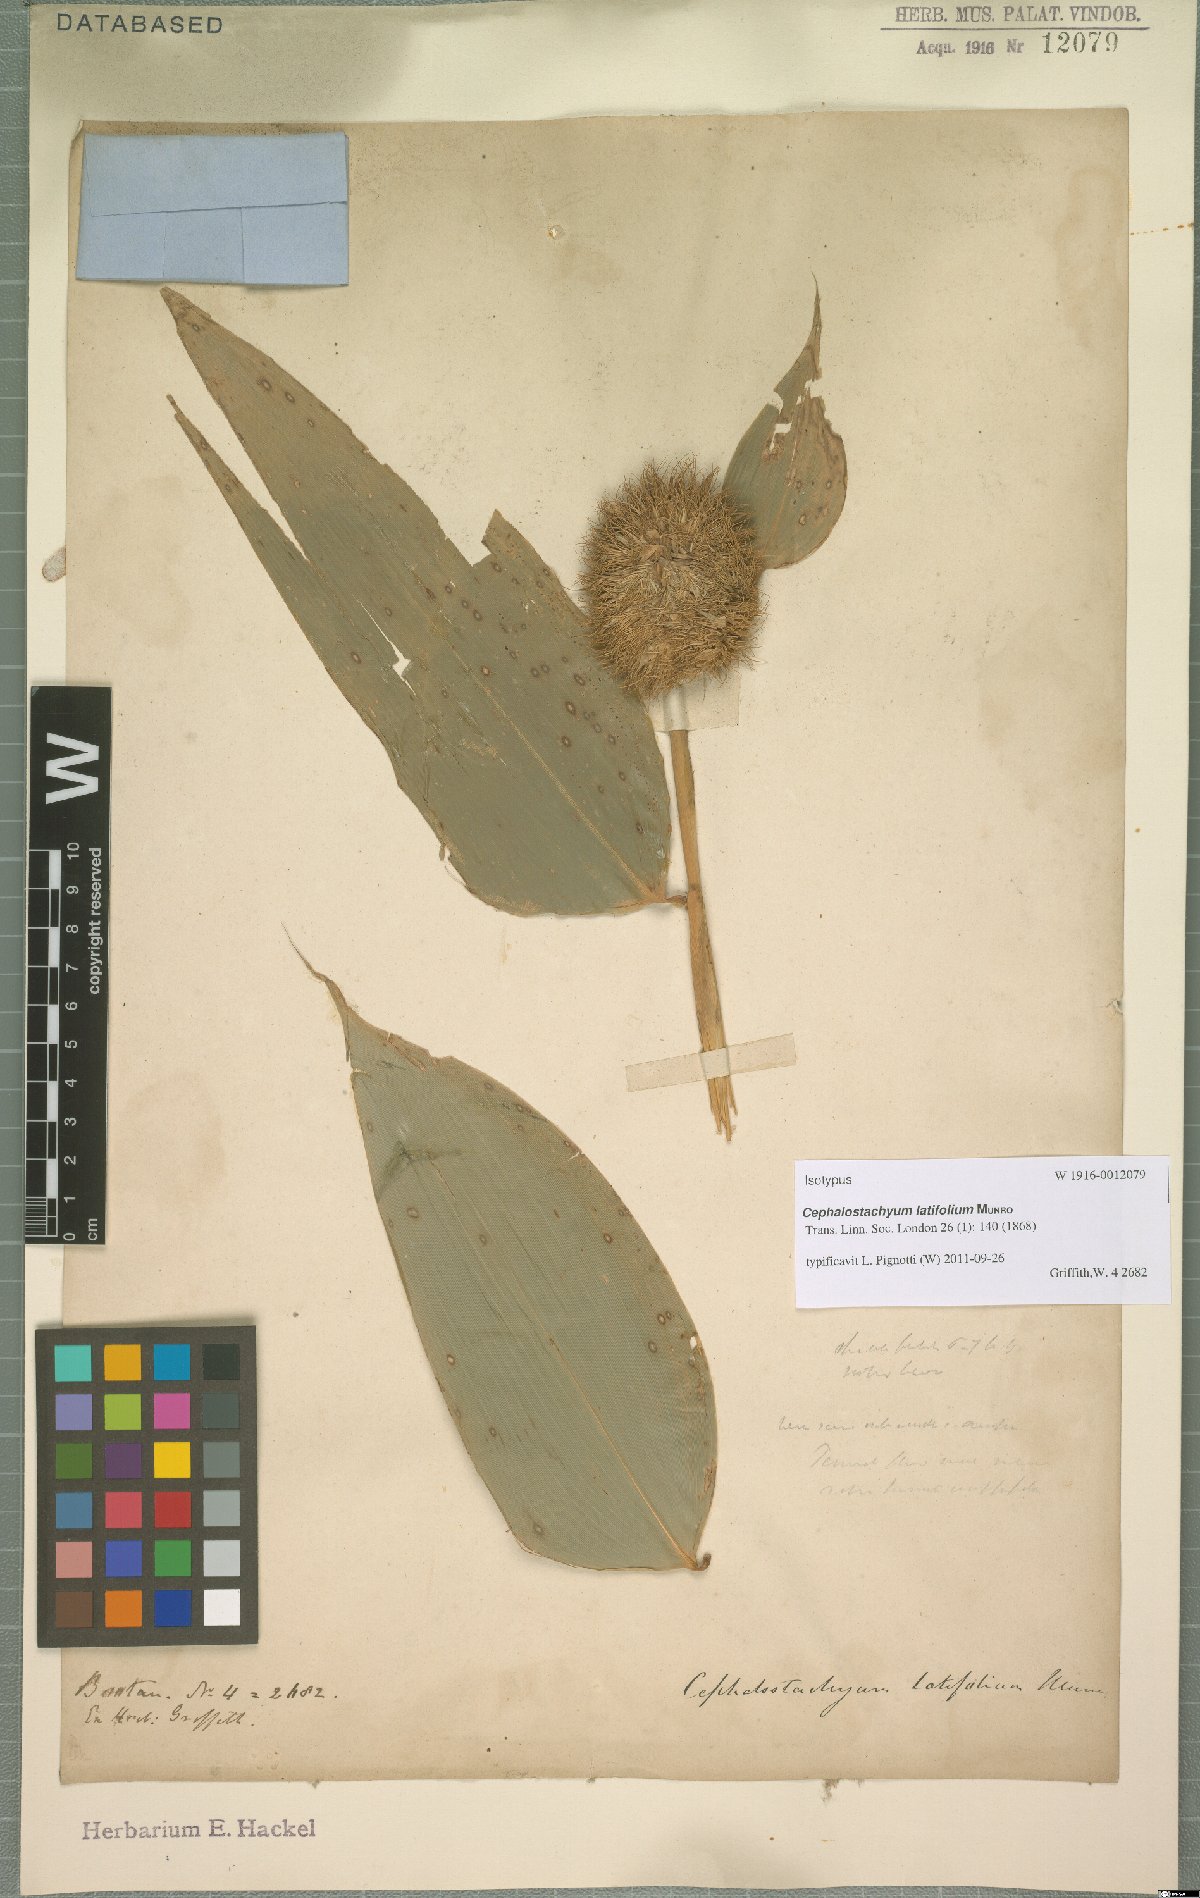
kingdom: Plantae
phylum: Tracheophyta
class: Liliopsida
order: Poales
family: Poaceae
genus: Cephalostachyum
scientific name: Cephalostachyum latifolium
